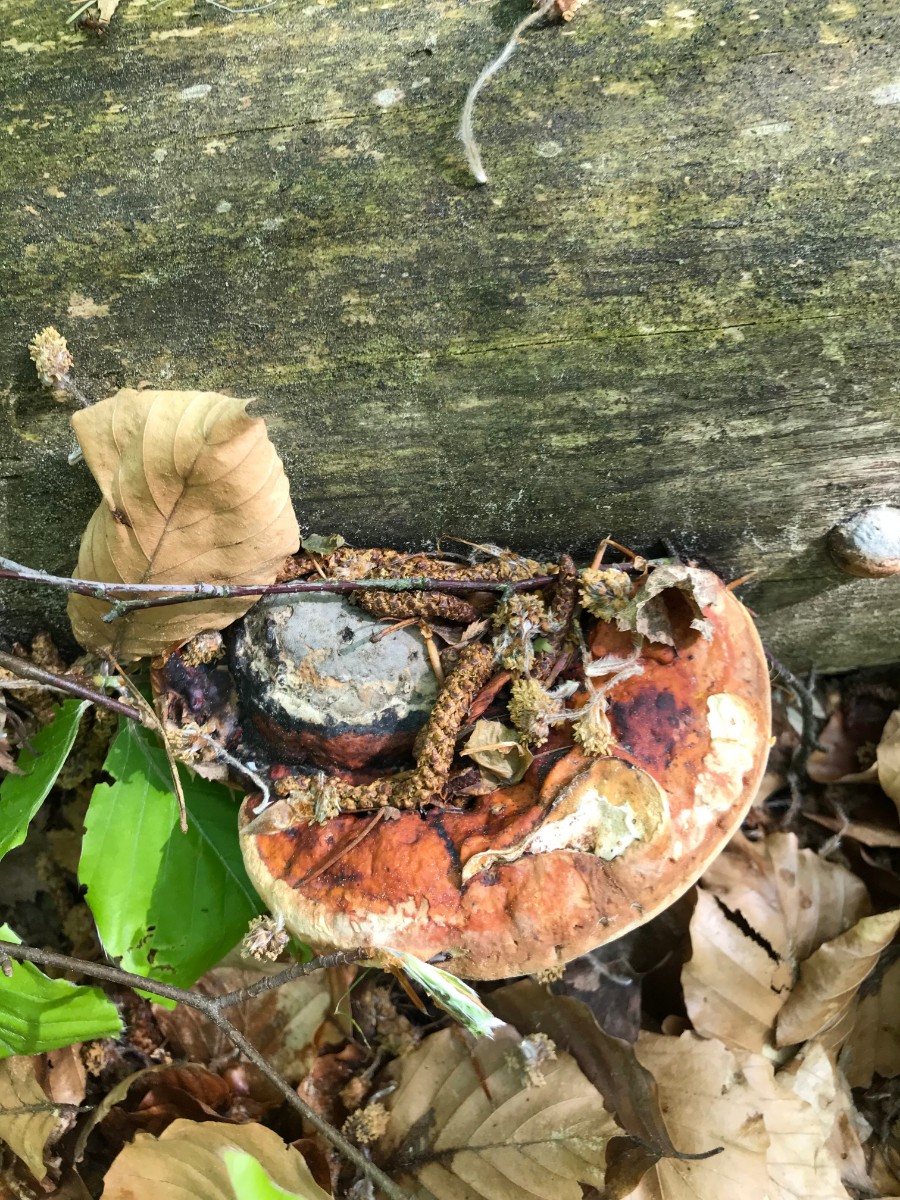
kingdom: Fungi
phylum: Basidiomycota
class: Agaricomycetes
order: Polyporales
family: Fomitopsidaceae
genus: Fomitopsis
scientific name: Fomitopsis pinicola
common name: randbæltet hovporesvamp
